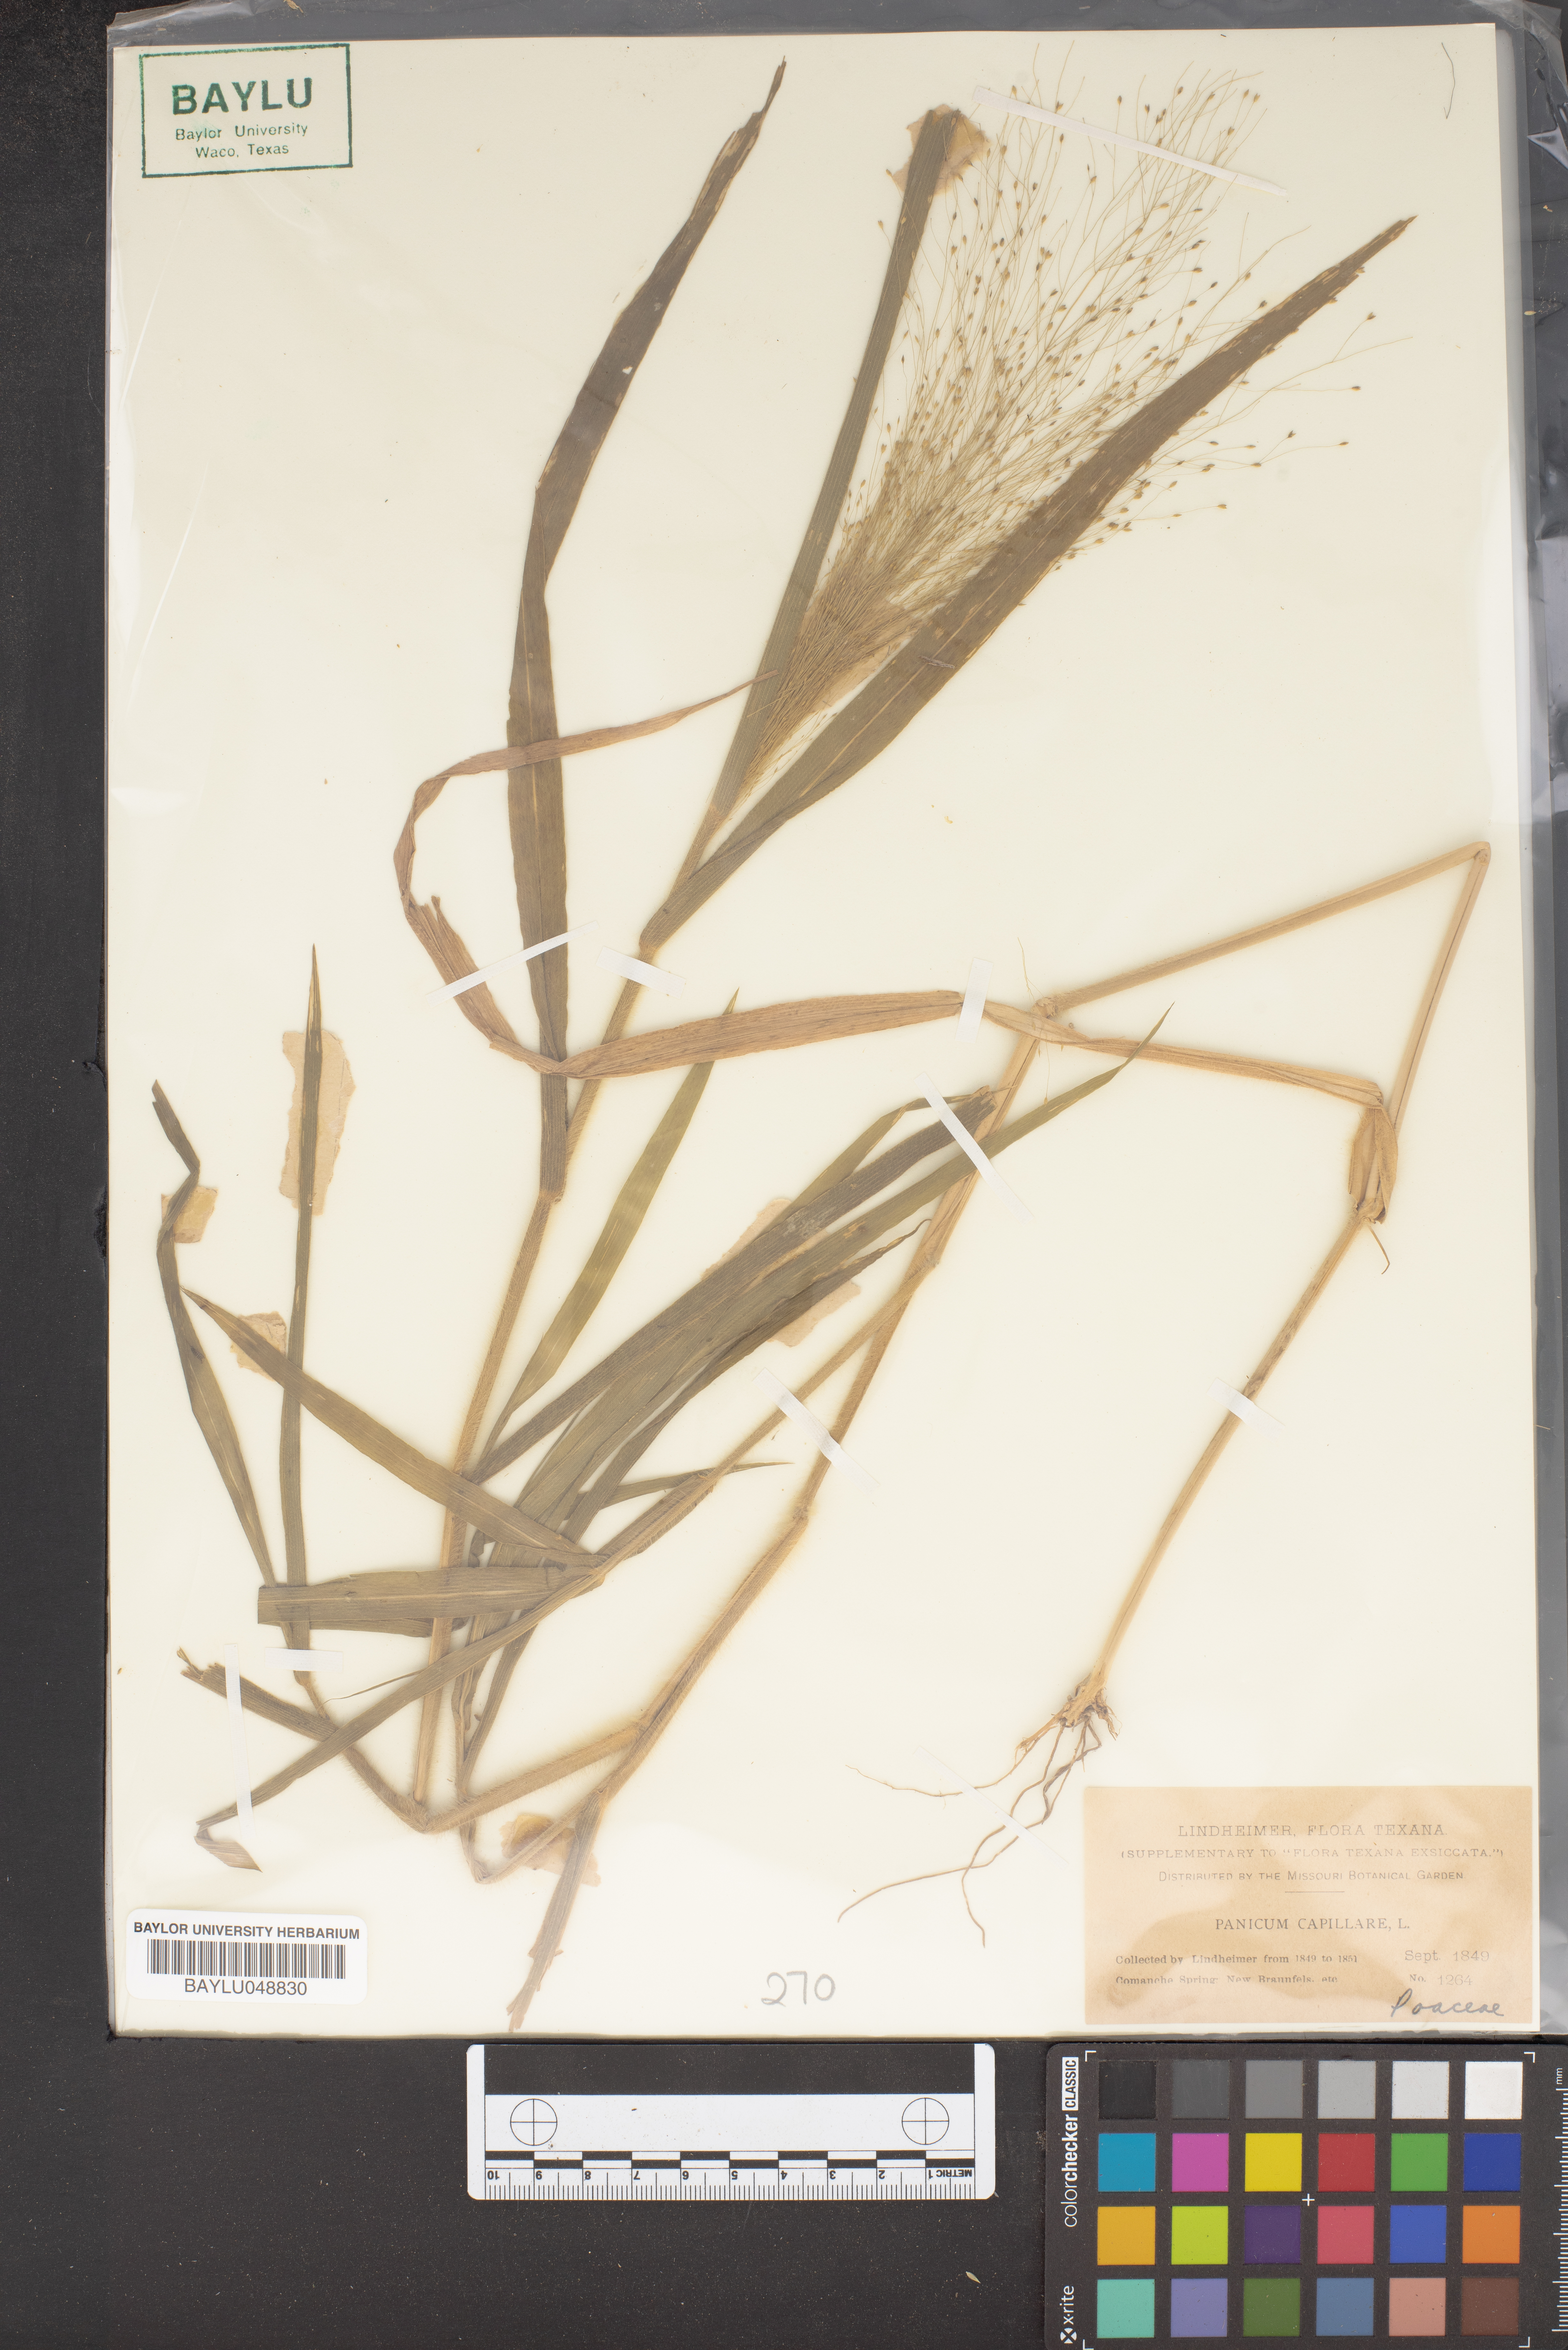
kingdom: Plantae
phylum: Tracheophyta
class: Liliopsida
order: Poales
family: Poaceae
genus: Panicum
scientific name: Panicum capillare
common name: Witch-grass
